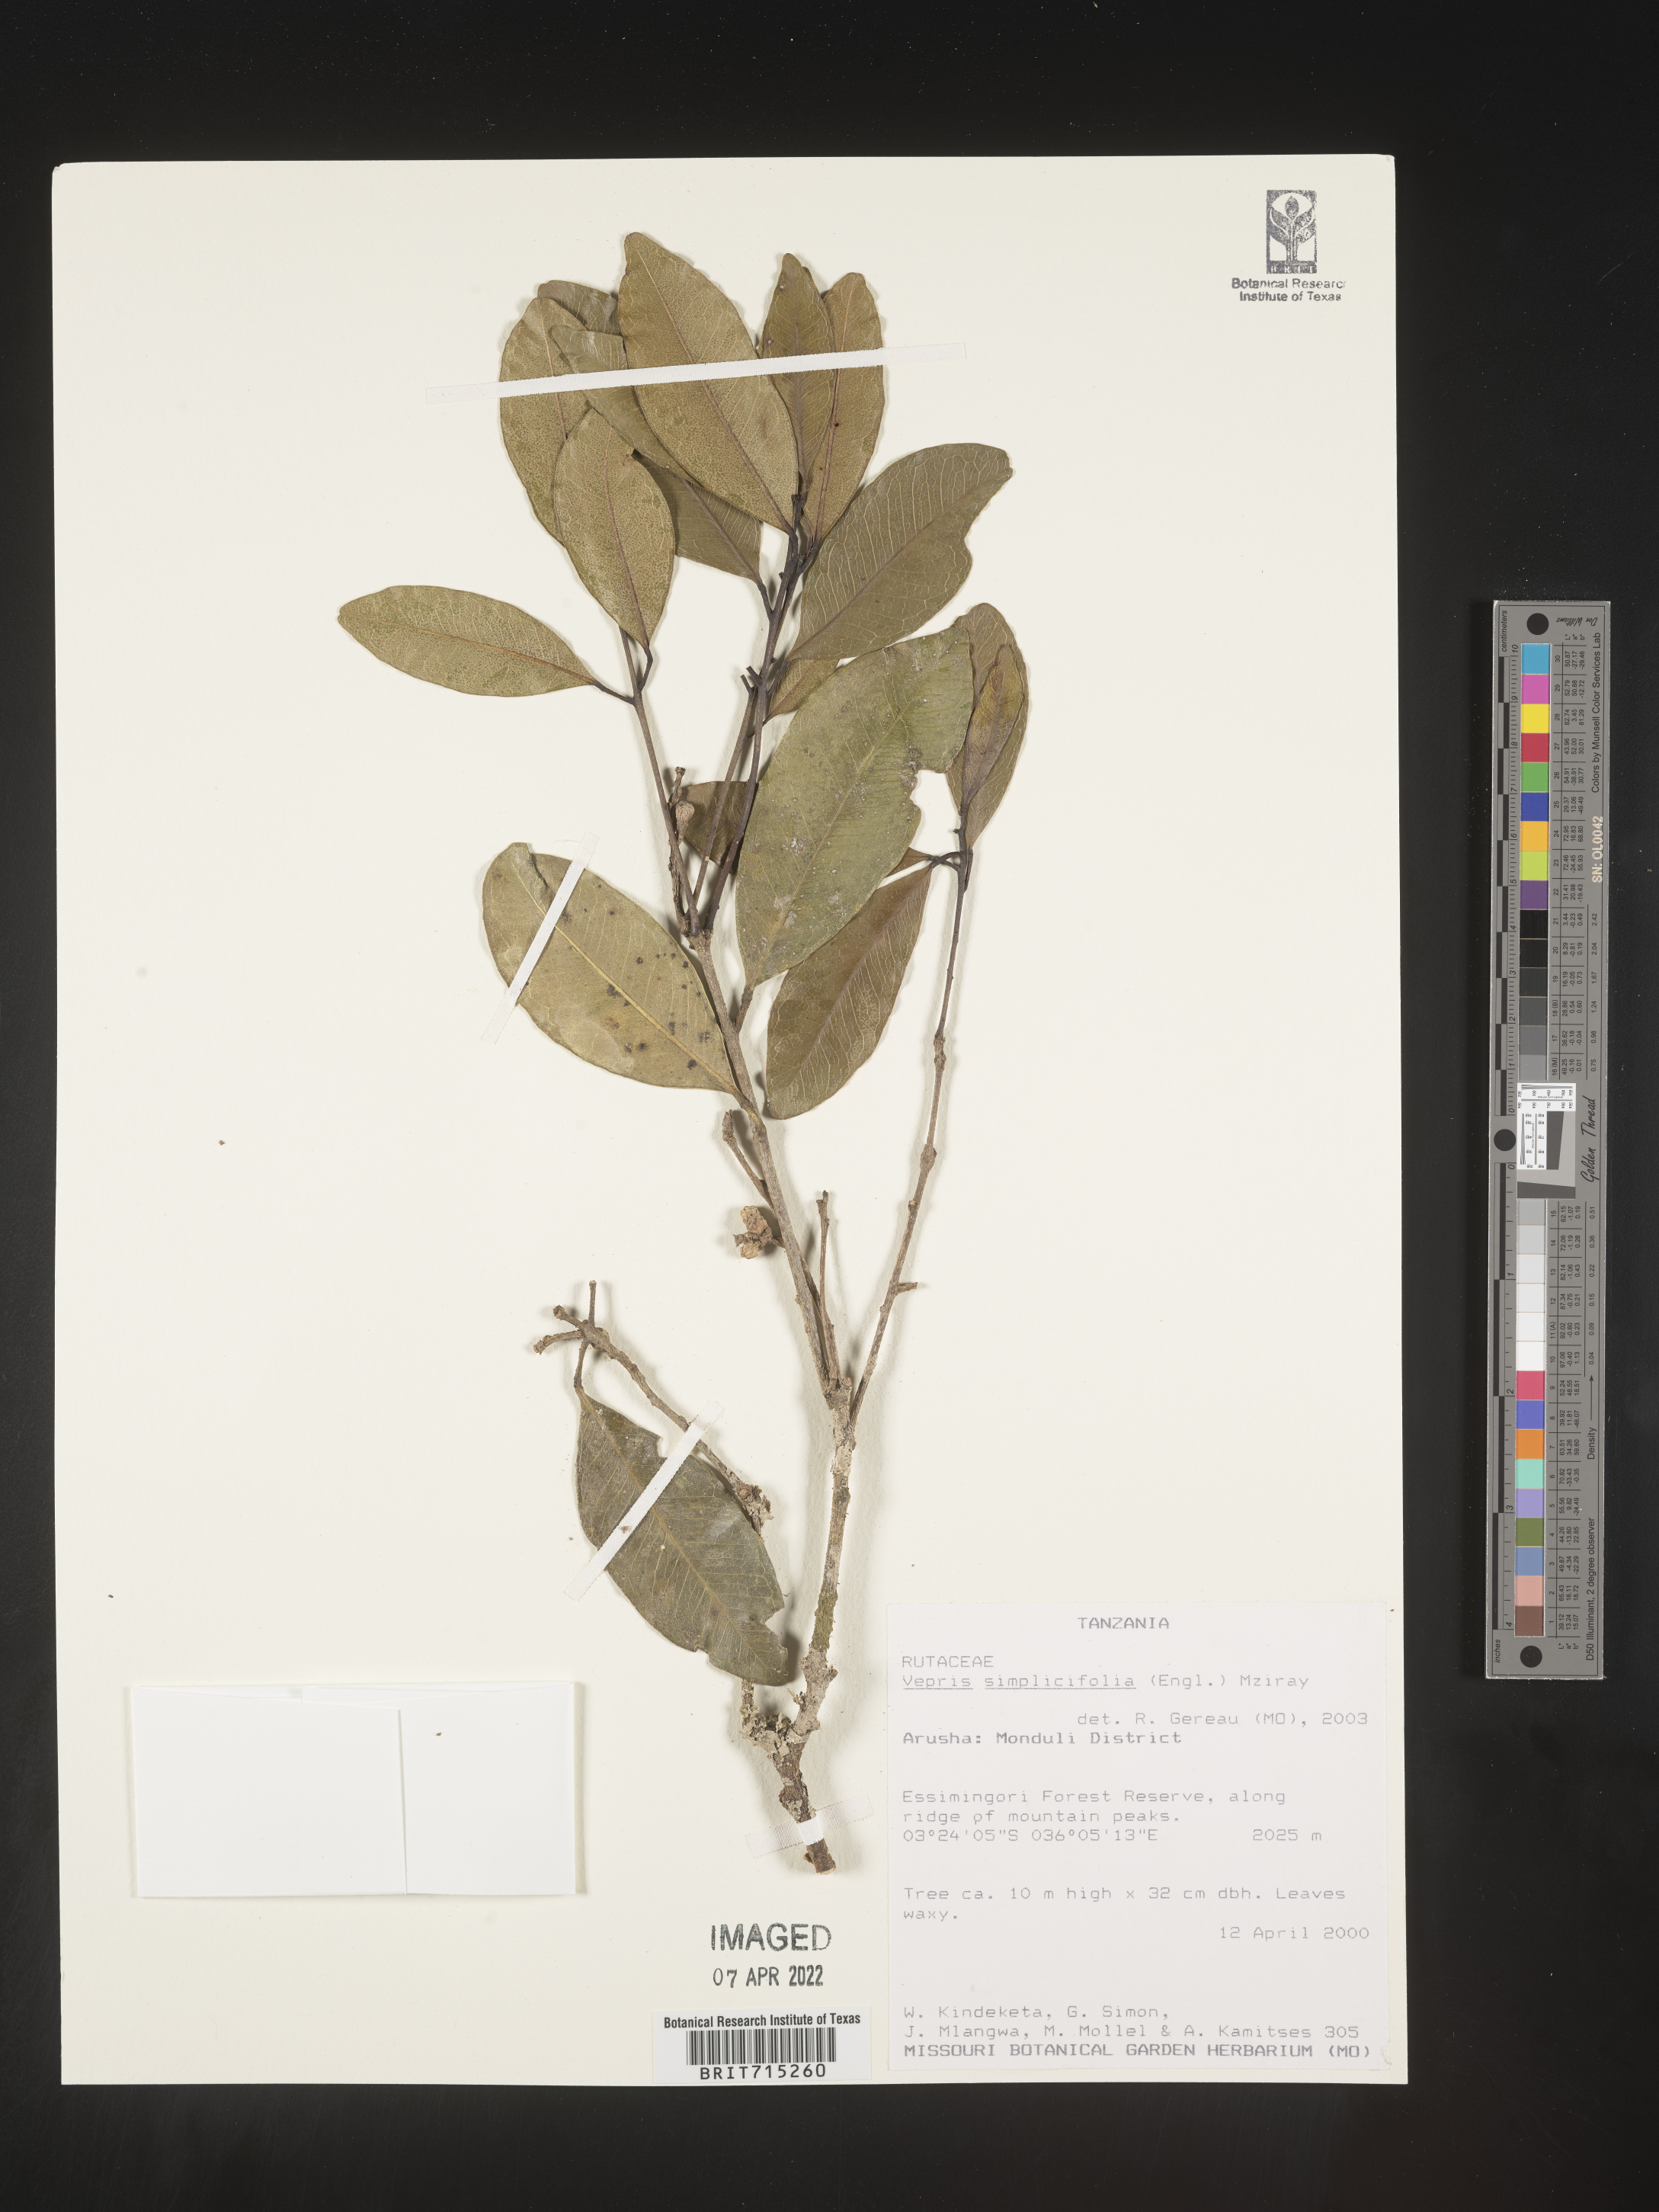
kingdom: Plantae
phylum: Tracheophyta
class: Magnoliopsida
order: Sapindales
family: Rutaceae
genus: Vepris
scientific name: Vepris
